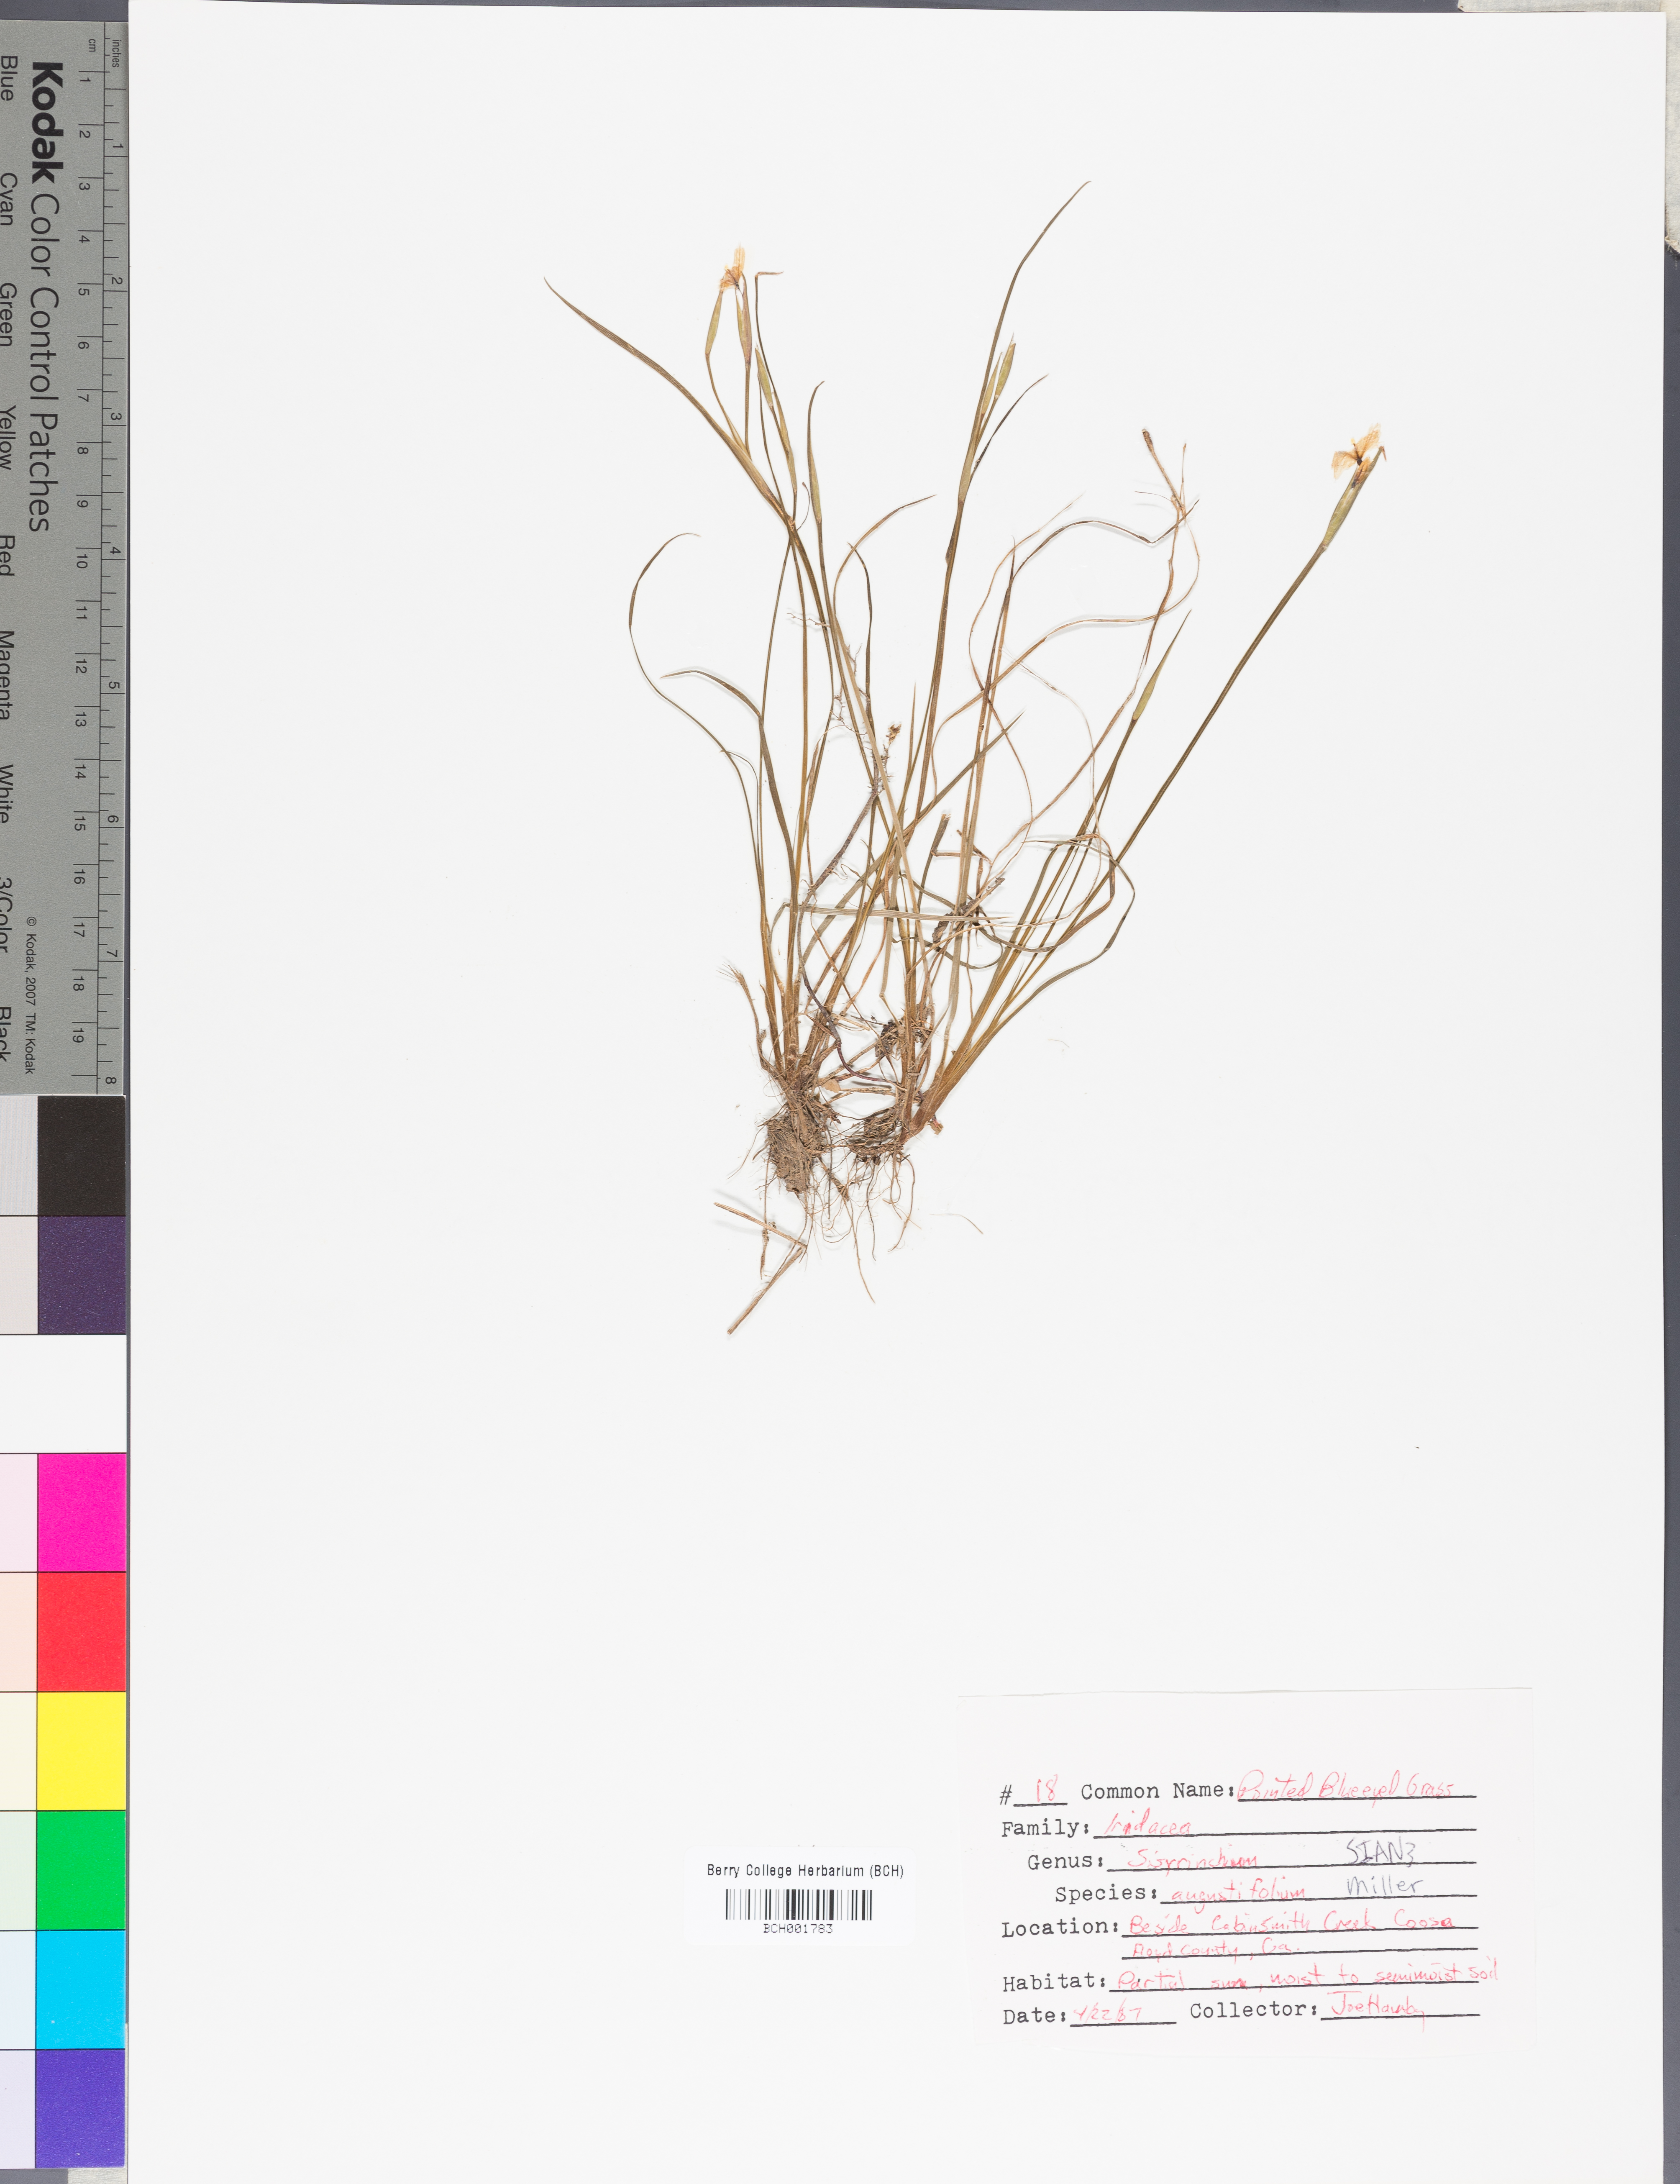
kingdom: Plantae
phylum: Tracheophyta
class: Liliopsida
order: Asparagales
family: Iridaceae
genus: Sisyrinchium
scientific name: Sisyrinchium angustifolium
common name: Narrow-leaf blue-eyed-grass
